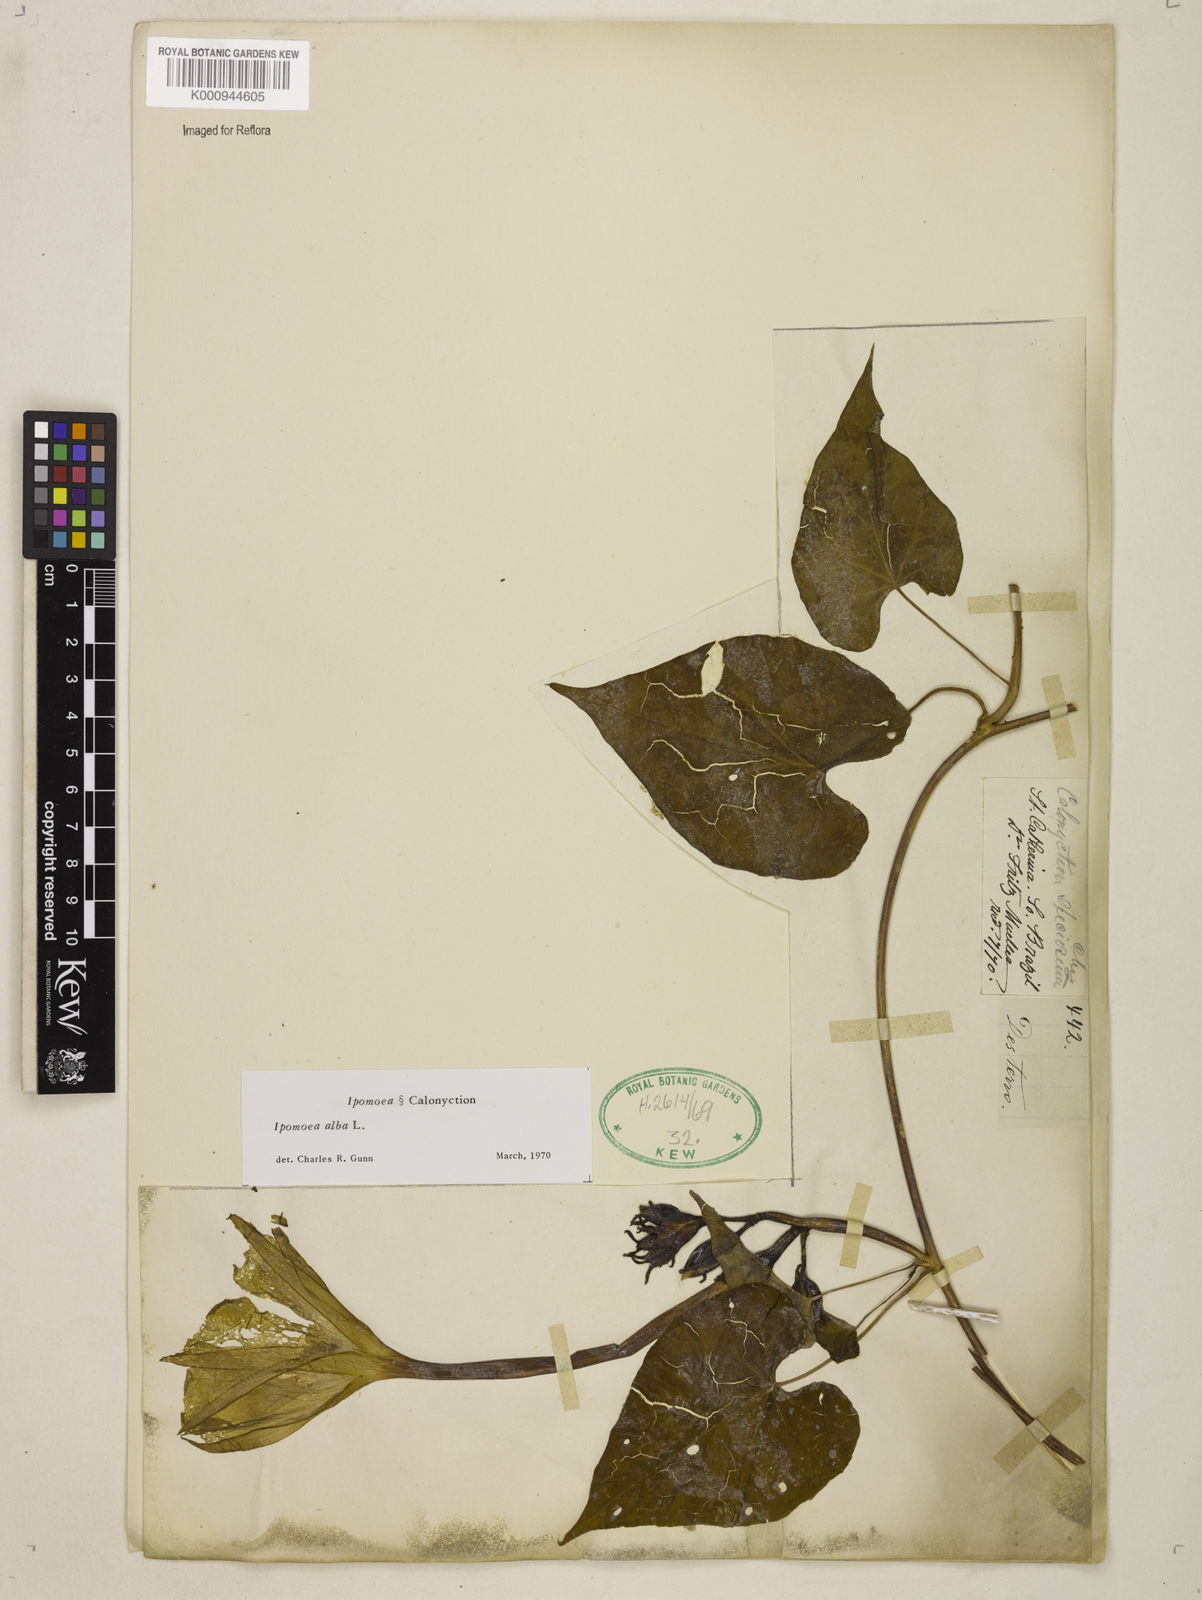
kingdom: Plantae
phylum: Tracheophyta
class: Magnoliopsida
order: Solanales
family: Convolvulaceae
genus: Ipomoea
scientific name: Ipomoea
